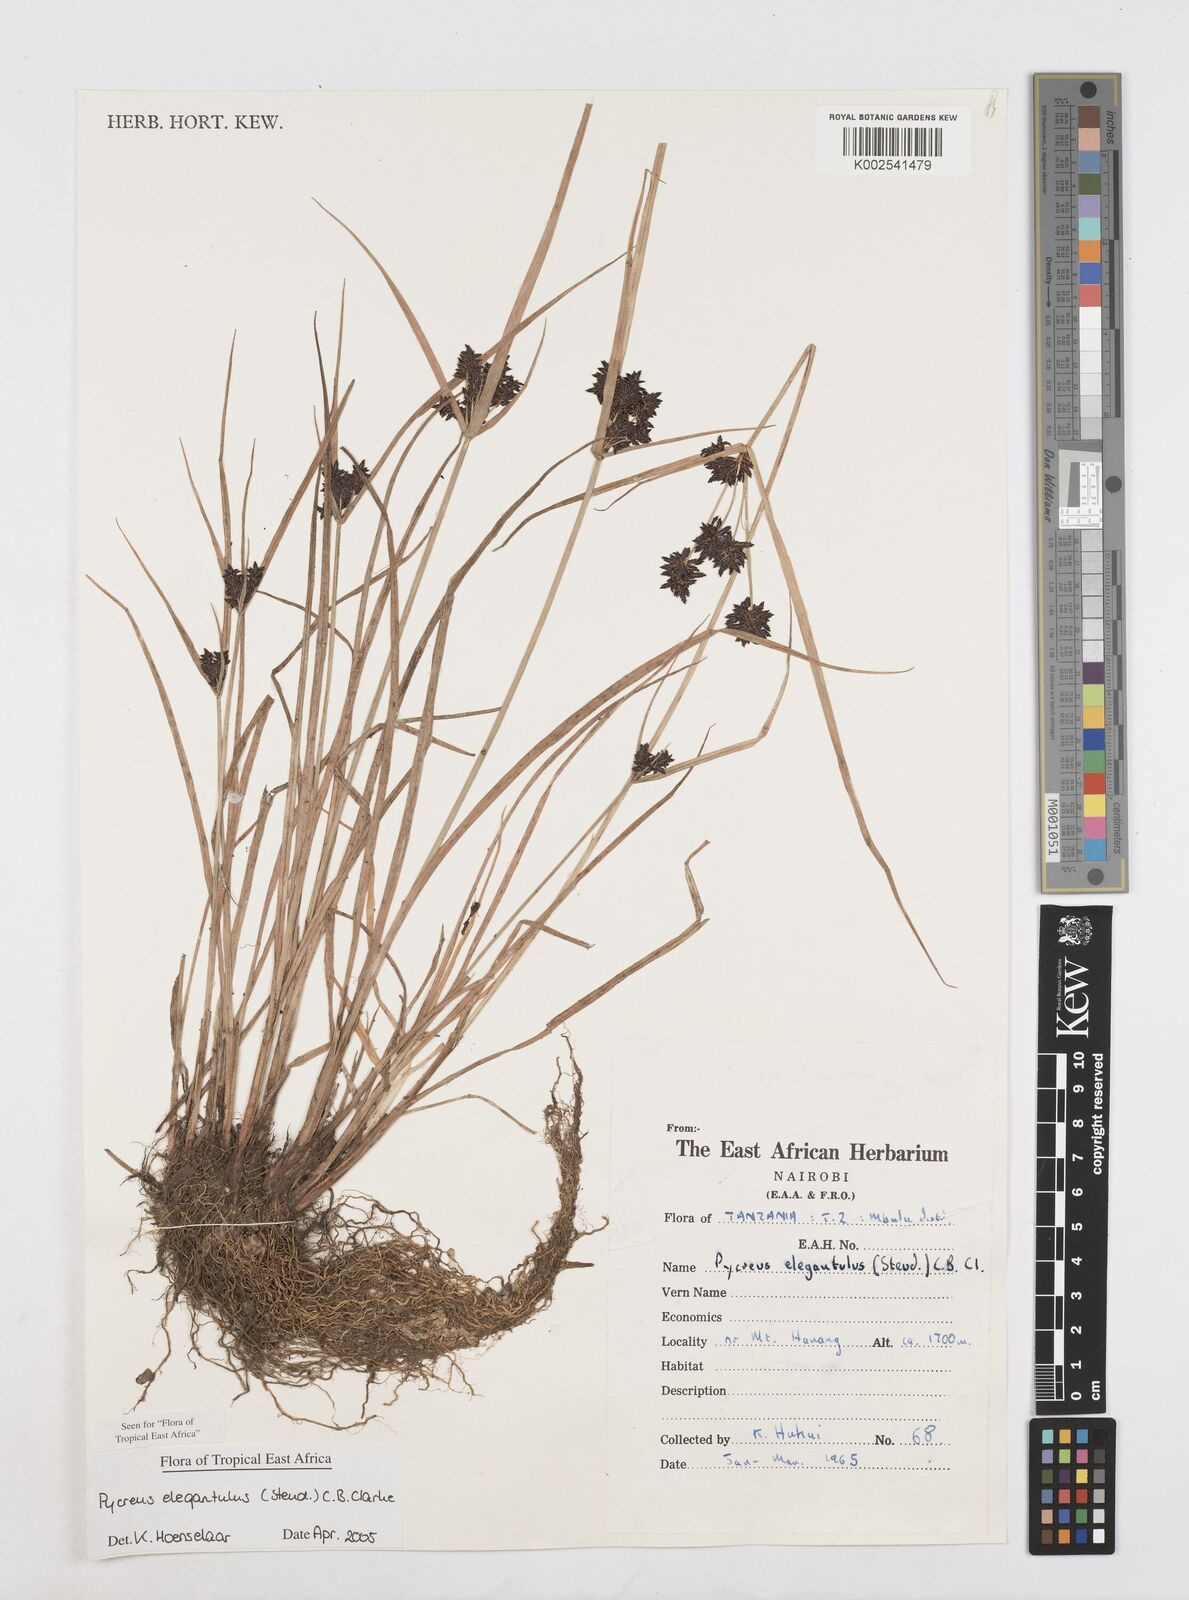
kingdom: Plantae
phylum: Tracheophyta
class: Liliopsida
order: Poales
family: Cyperaceae
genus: Cyperus
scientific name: Cyperus elegantulus
